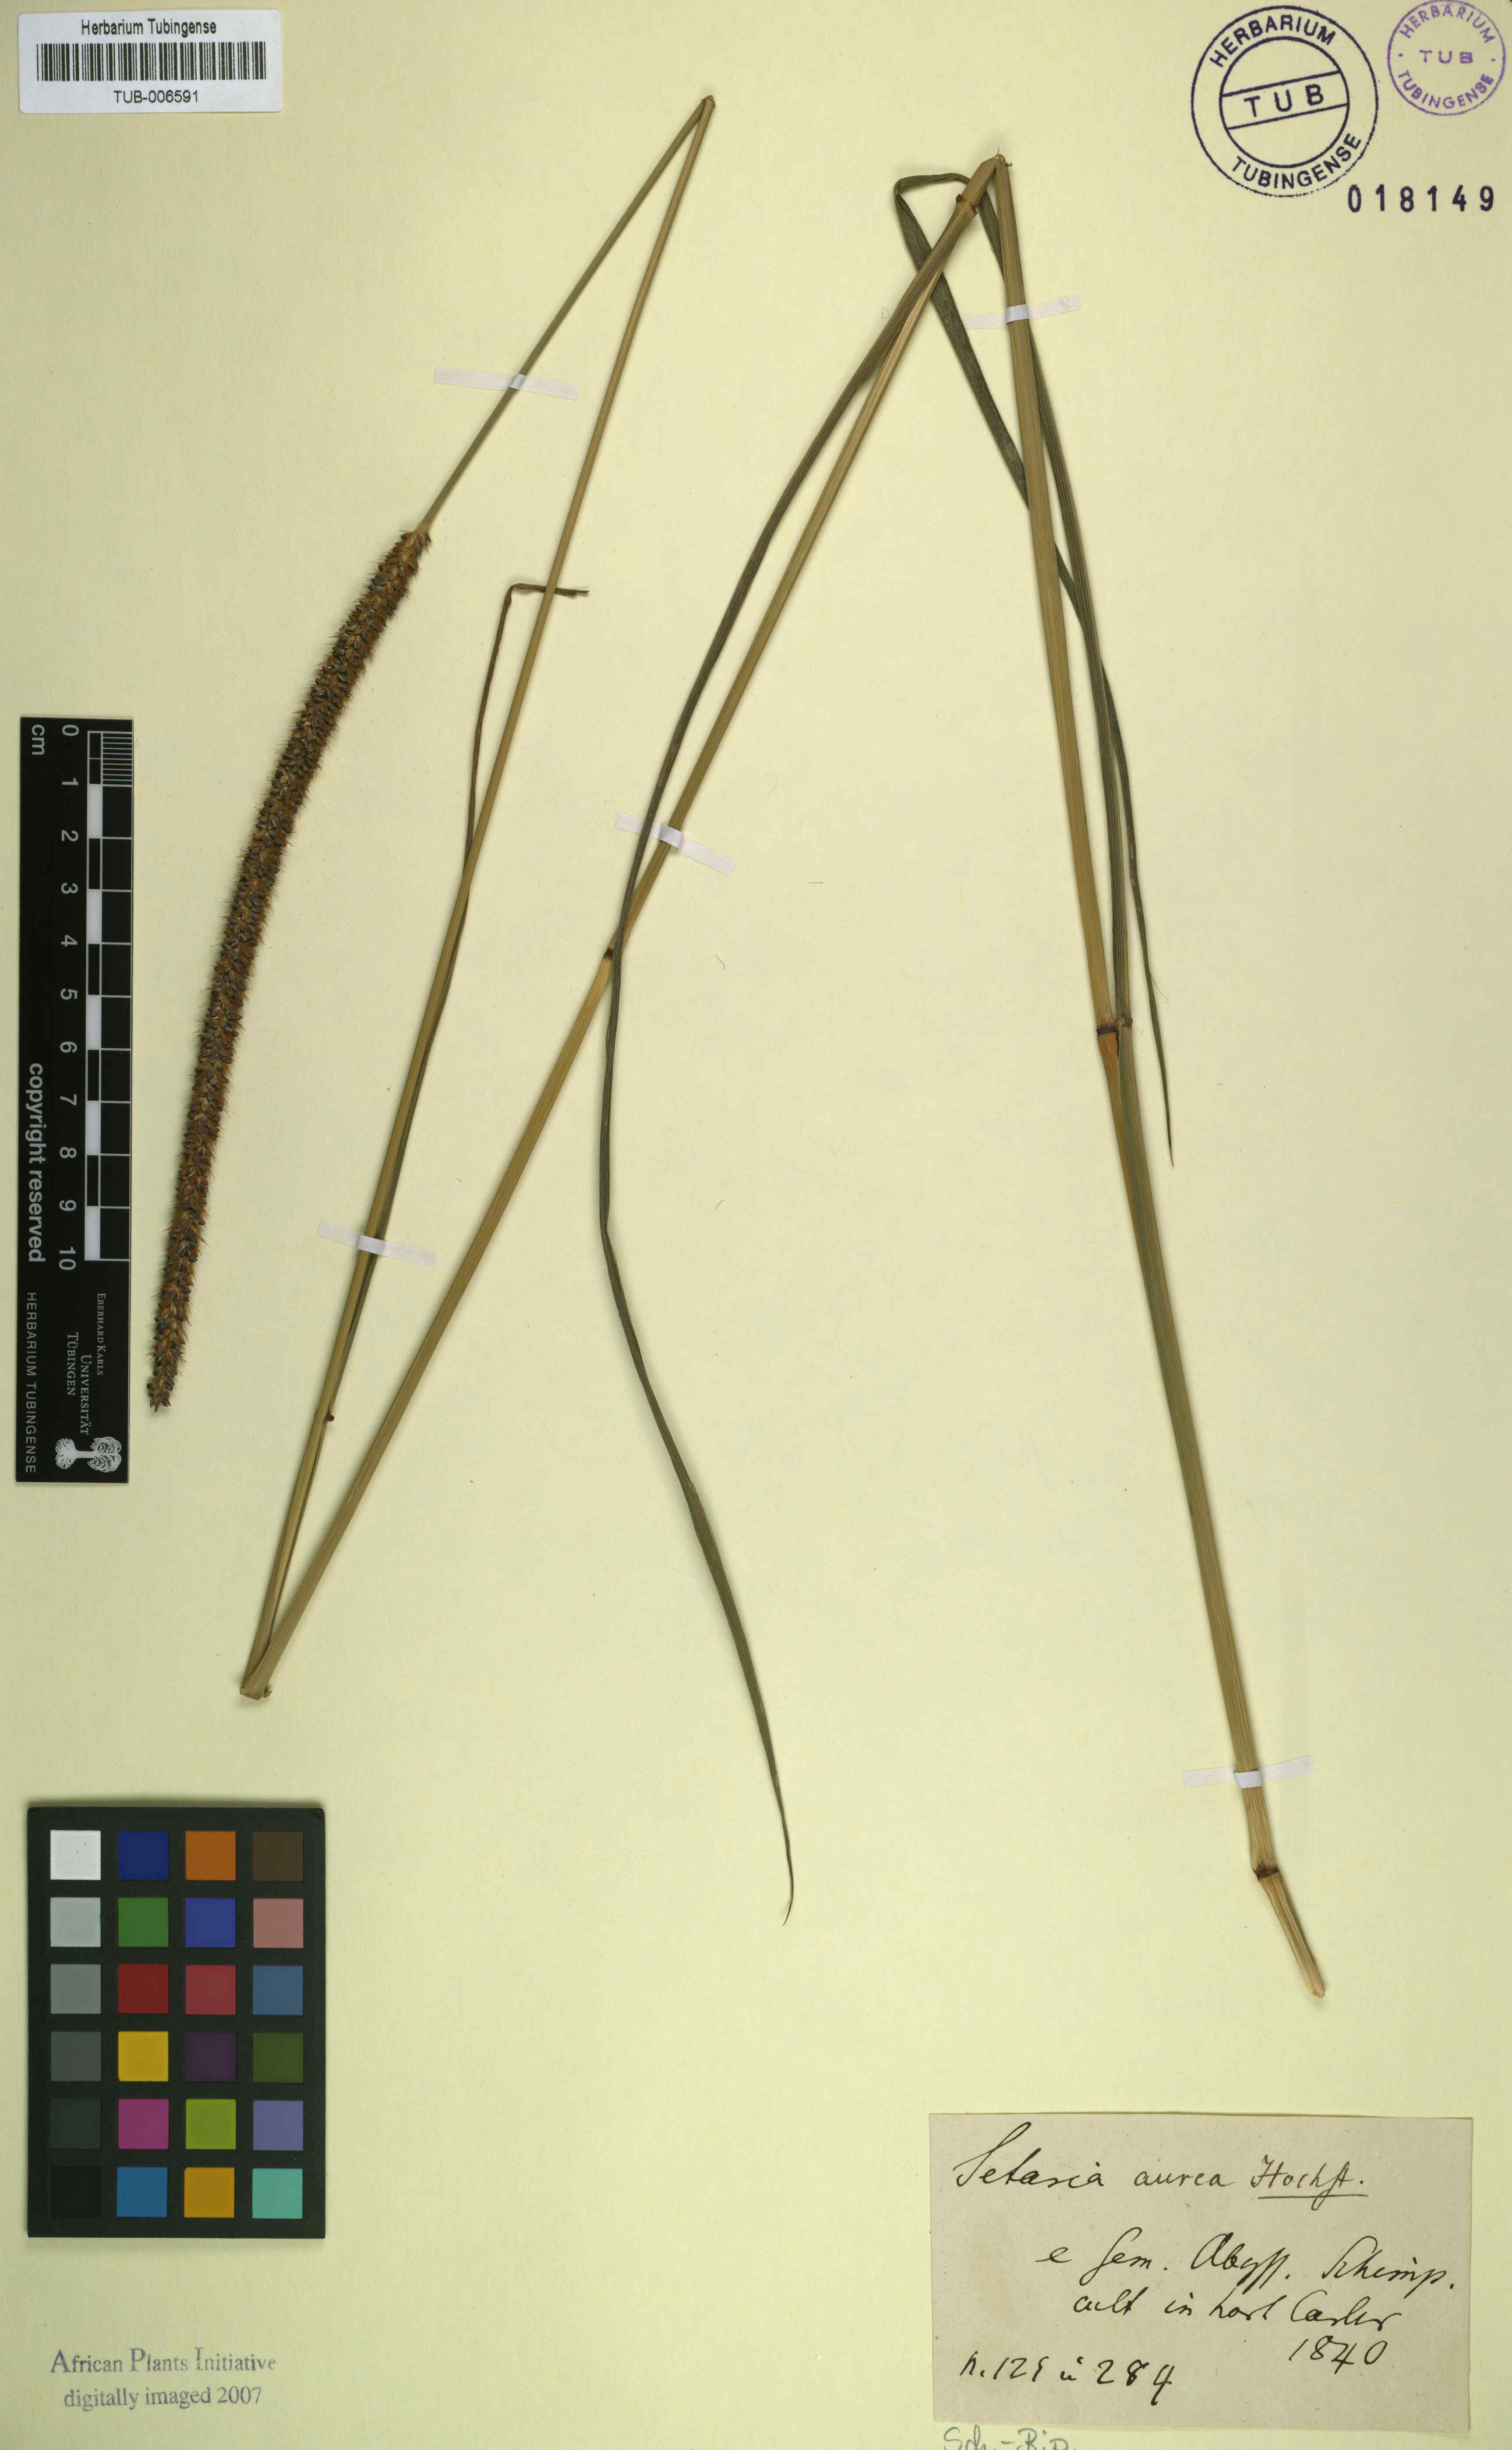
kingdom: Plantae
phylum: Tracheophyta
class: Liliopsida
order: Poales
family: Poaceae
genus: Setaria
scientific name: Setaria pumila
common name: Yellow bristle-grass
